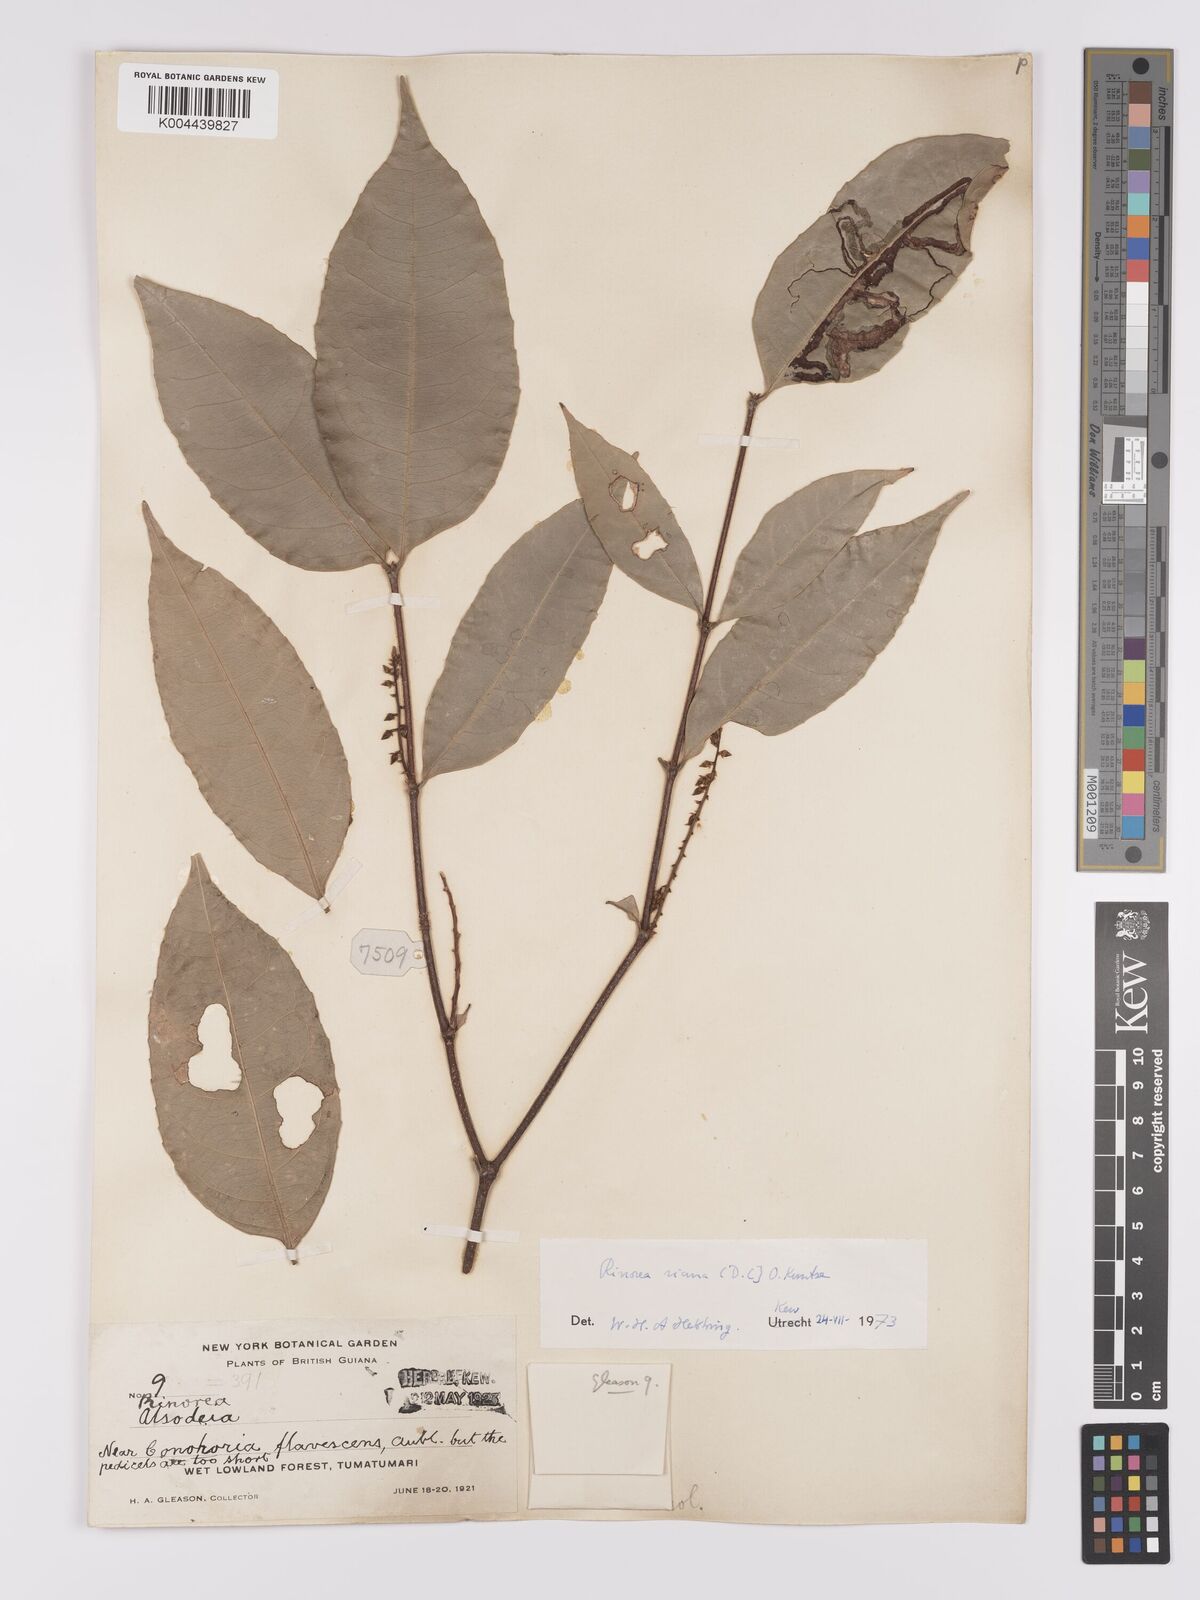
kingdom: Plantae
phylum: Tracheophyta
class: Magnoliopsida
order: Malpighiales
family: Violaceae
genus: Rinorea
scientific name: Rinorea riana
